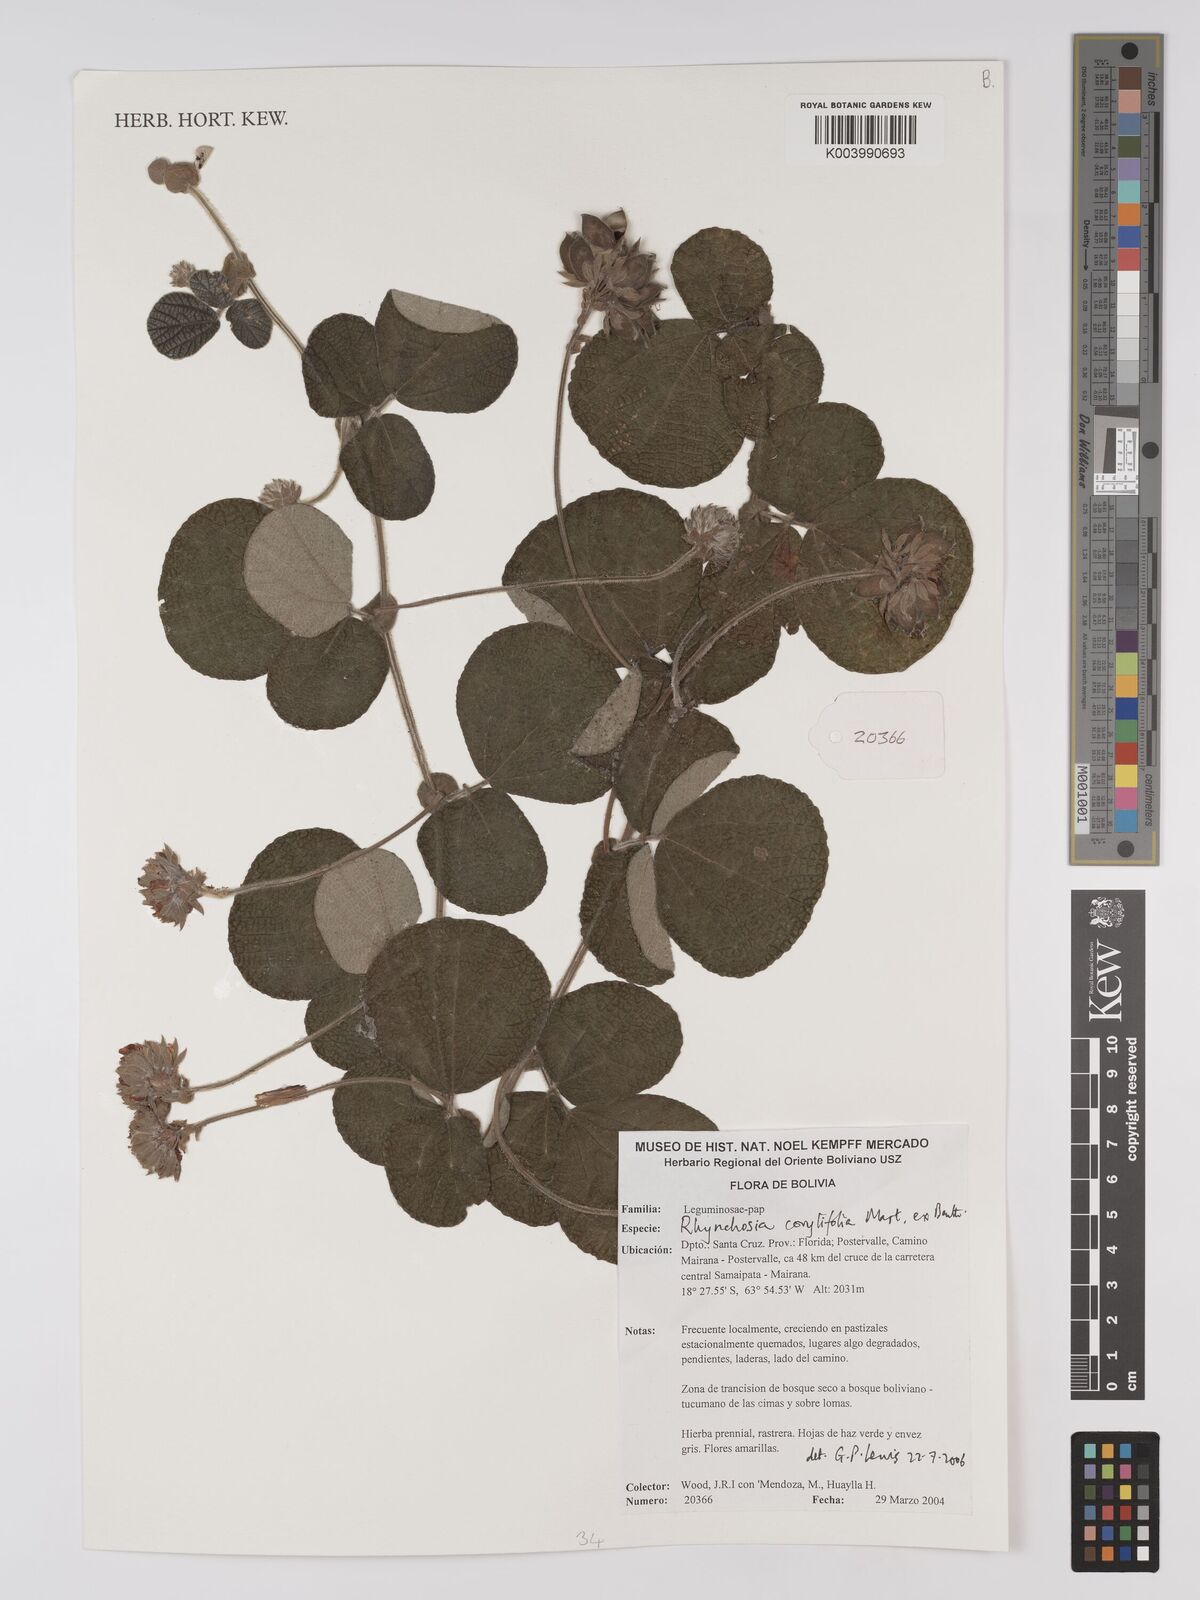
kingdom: Plantae
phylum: Tracheophyta
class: Magnoliopsida
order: Fabales
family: Fabaceae
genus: Rhynchosia
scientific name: Rhynchosia corylifolia
